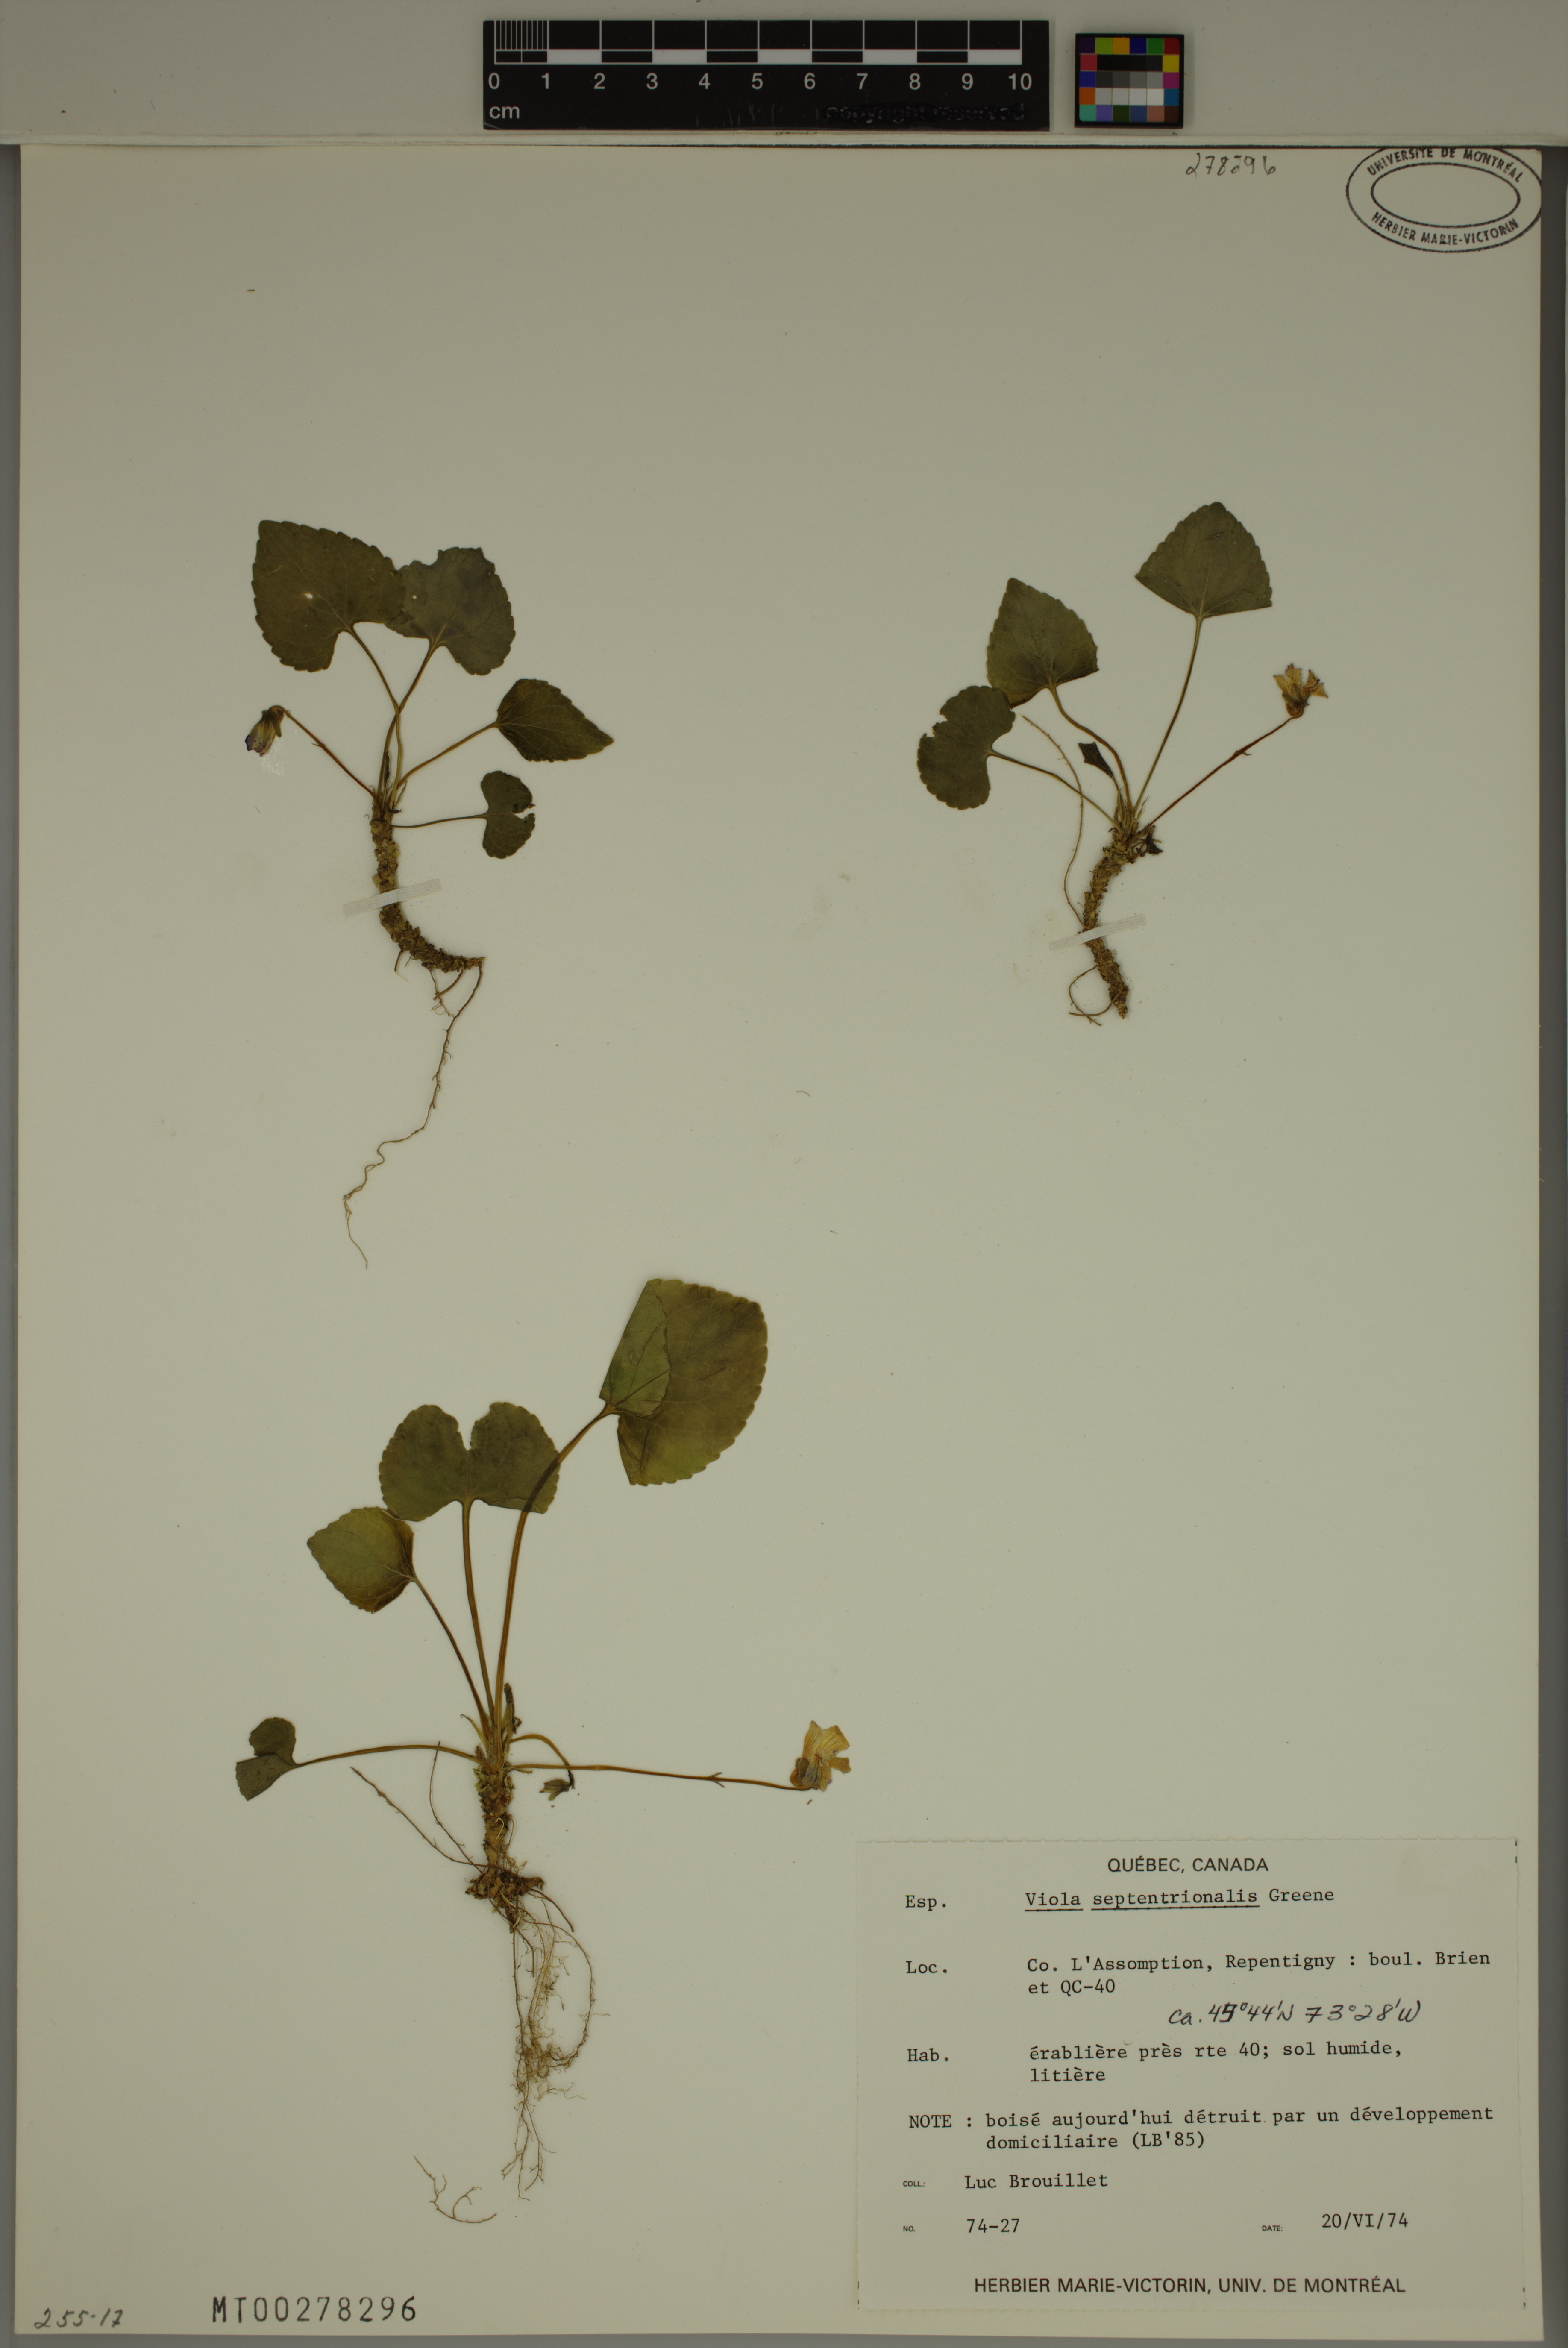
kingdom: Plantae
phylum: Tracheophyta
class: Magnoliopsida
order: Malpighiales
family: Violaceae
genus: Viola
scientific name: Viola septentrionalis
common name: Northern woodland violet
